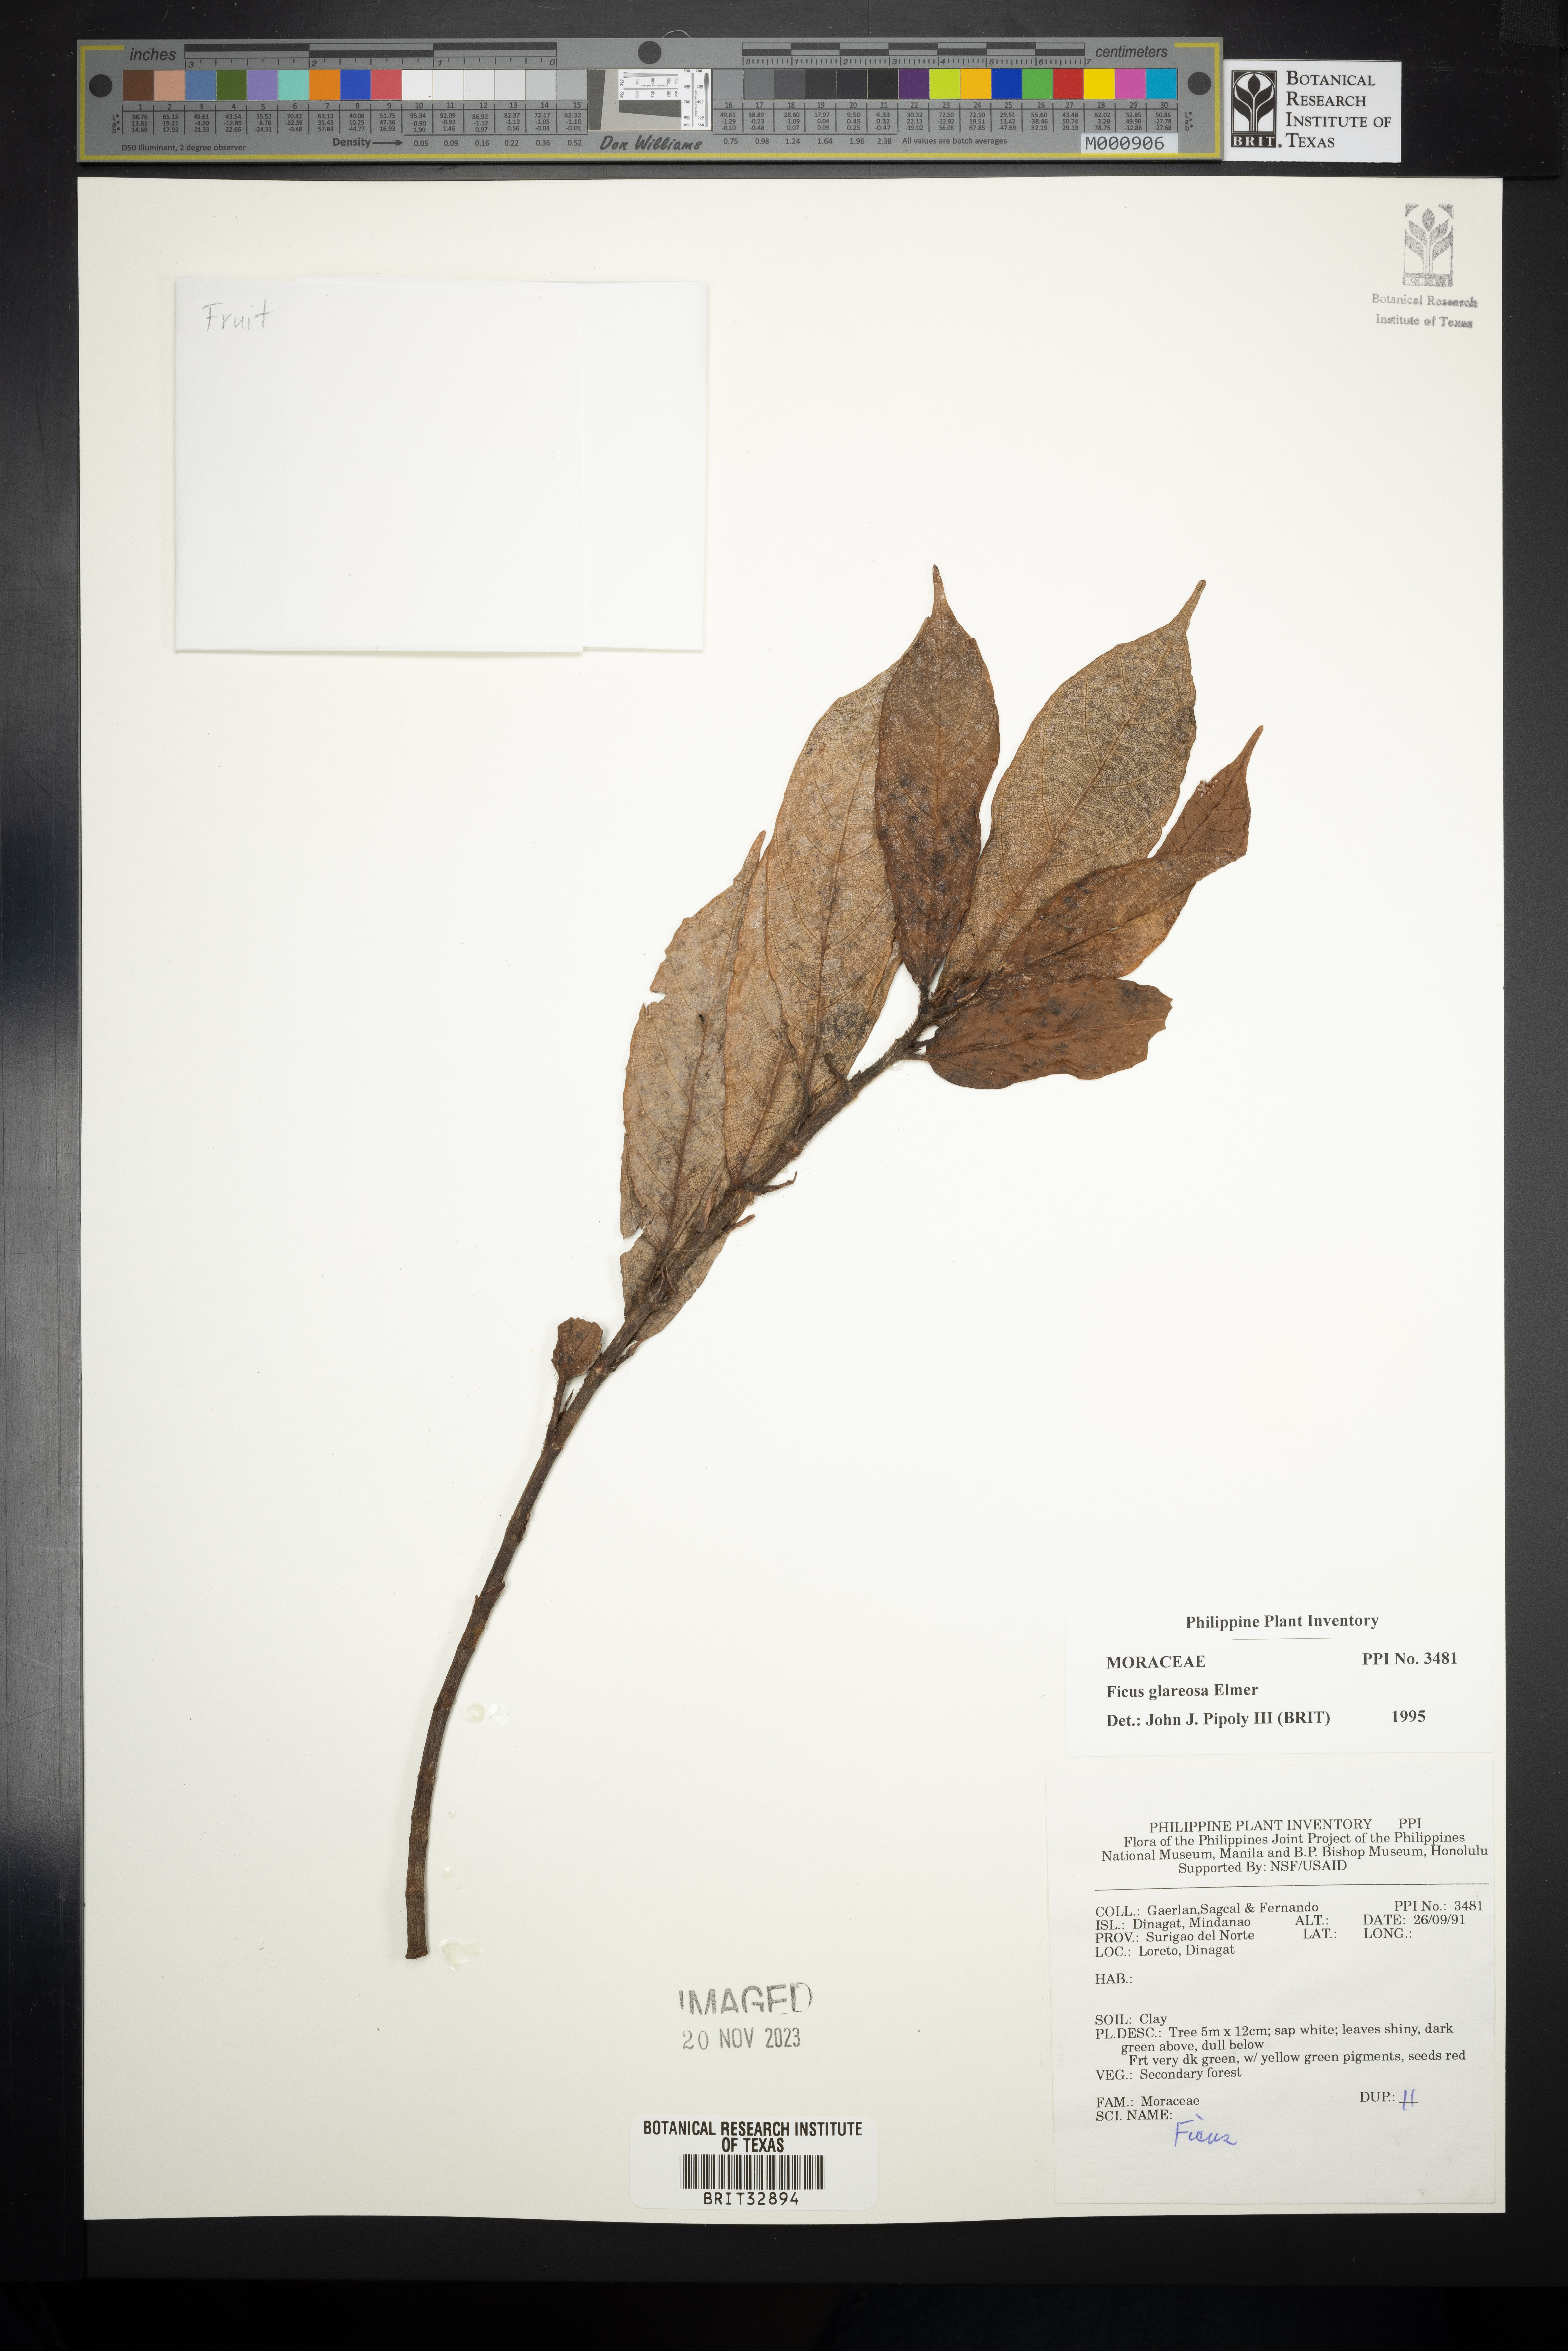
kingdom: Plantae
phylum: Tracheophyta
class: Magnoliopsida
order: Rosales
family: Moraceae
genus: Ficus
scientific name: Ficus glareosa
